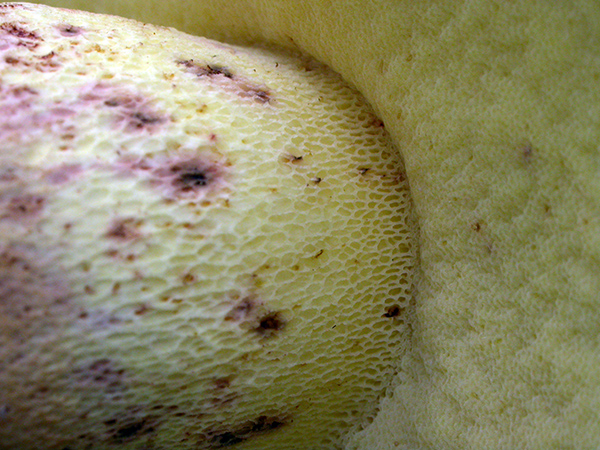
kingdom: Fungi
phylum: Basidiomycota
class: Agaricomycetes
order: Boletales
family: Boletaceae
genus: Caloboletus
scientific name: Caloboletus radicans
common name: rod-rørhat
